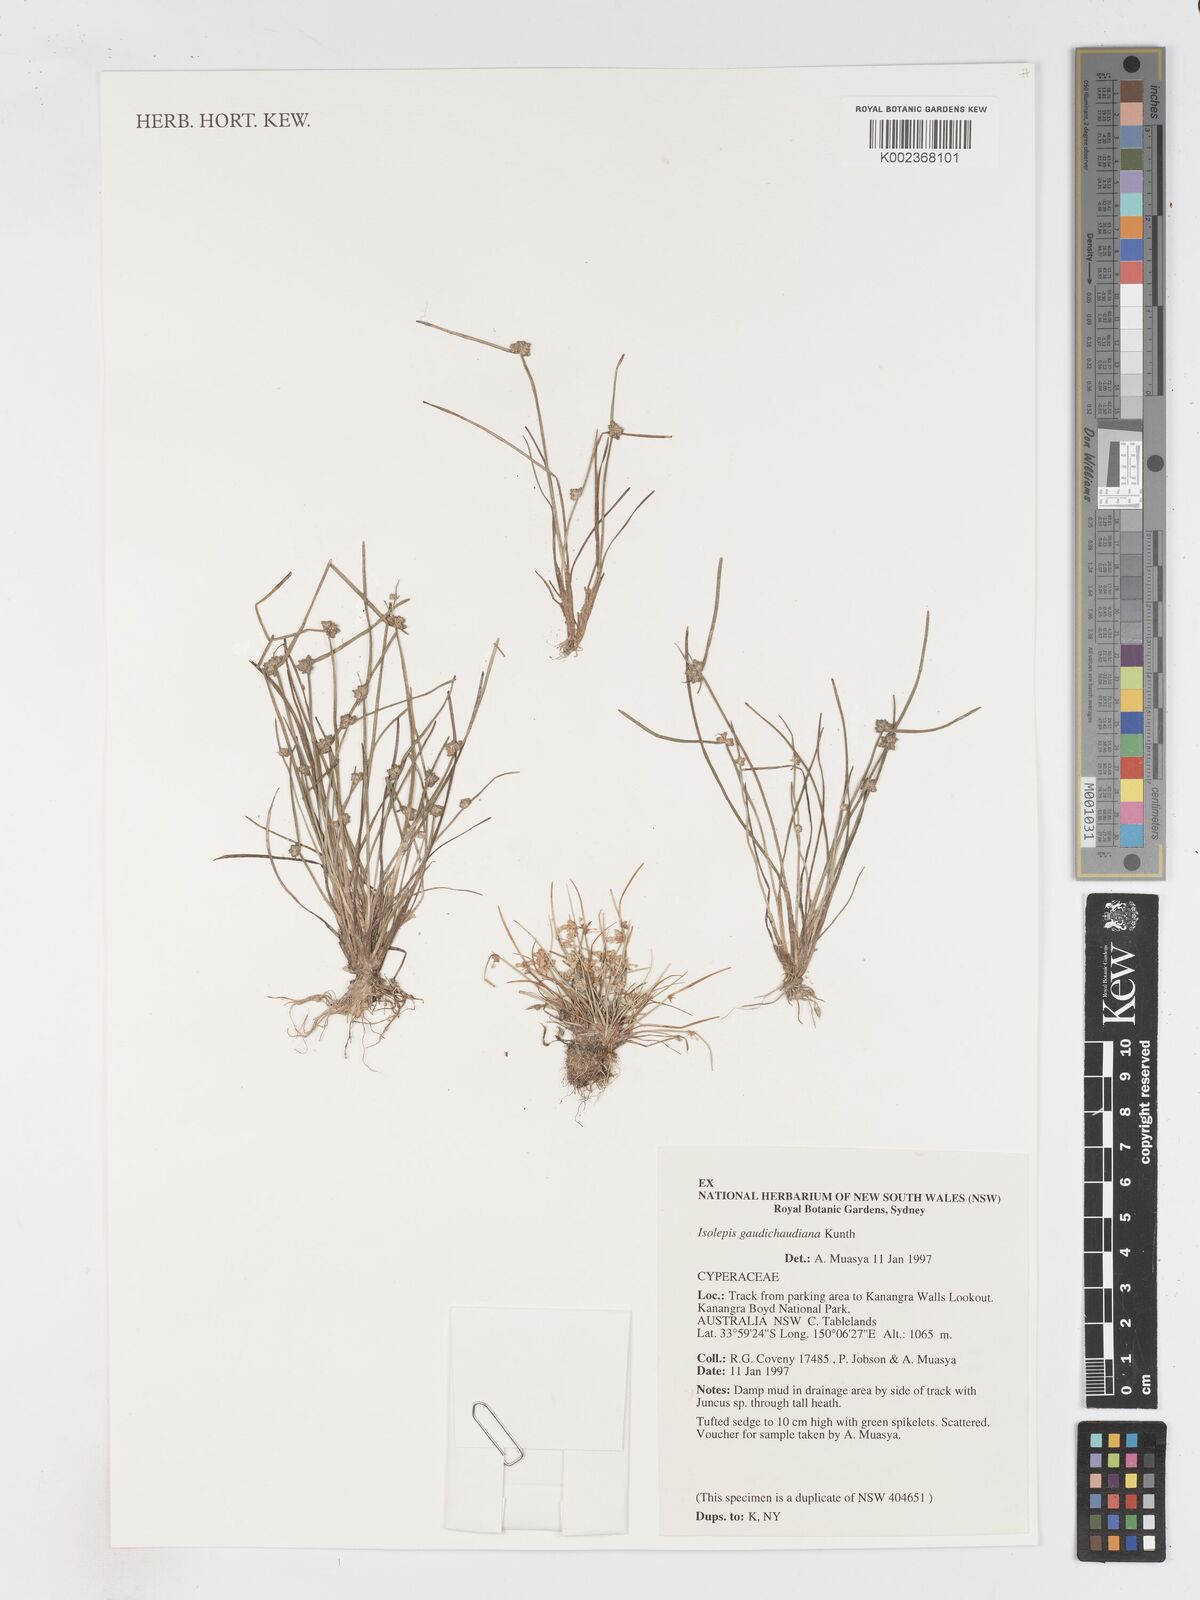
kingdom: Plantae
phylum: Tracheophyta
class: Liliopsida
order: Poales
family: Cyperaceae
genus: Isolepis
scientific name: Isolepis gaudichaudiana
